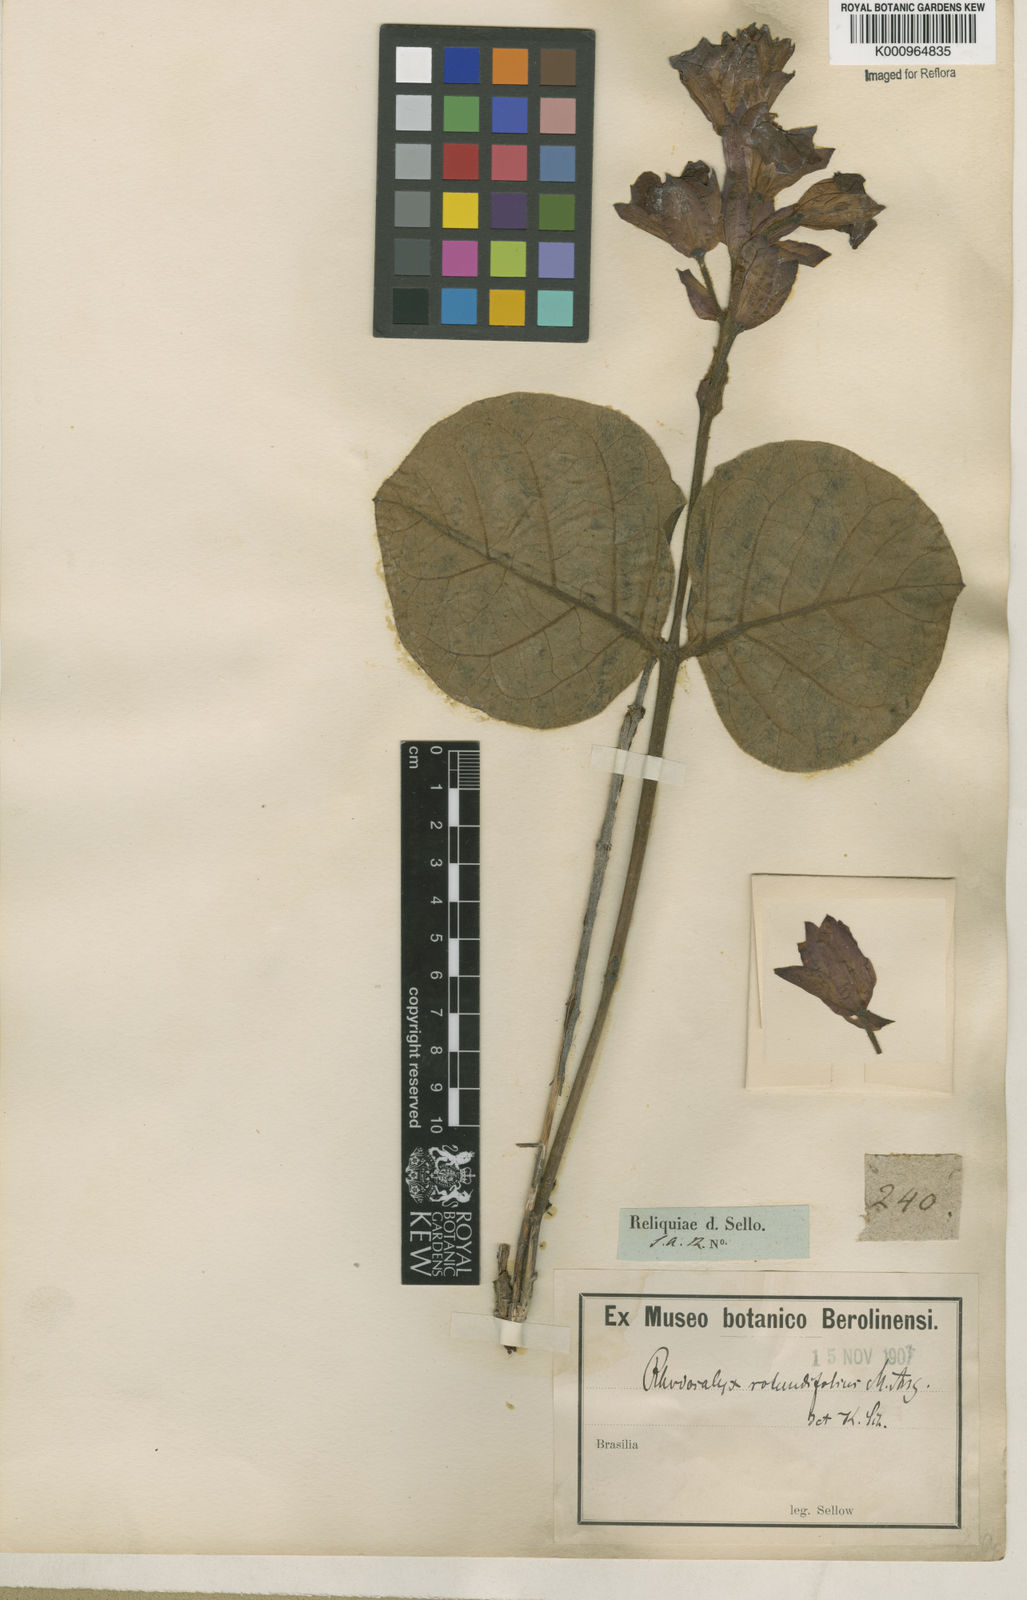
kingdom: Plantae
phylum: Tracheophyta
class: Magnoliopsida
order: Gentianales
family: Apocynaceae
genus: Rhodocalyx
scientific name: Rhodocalyx
